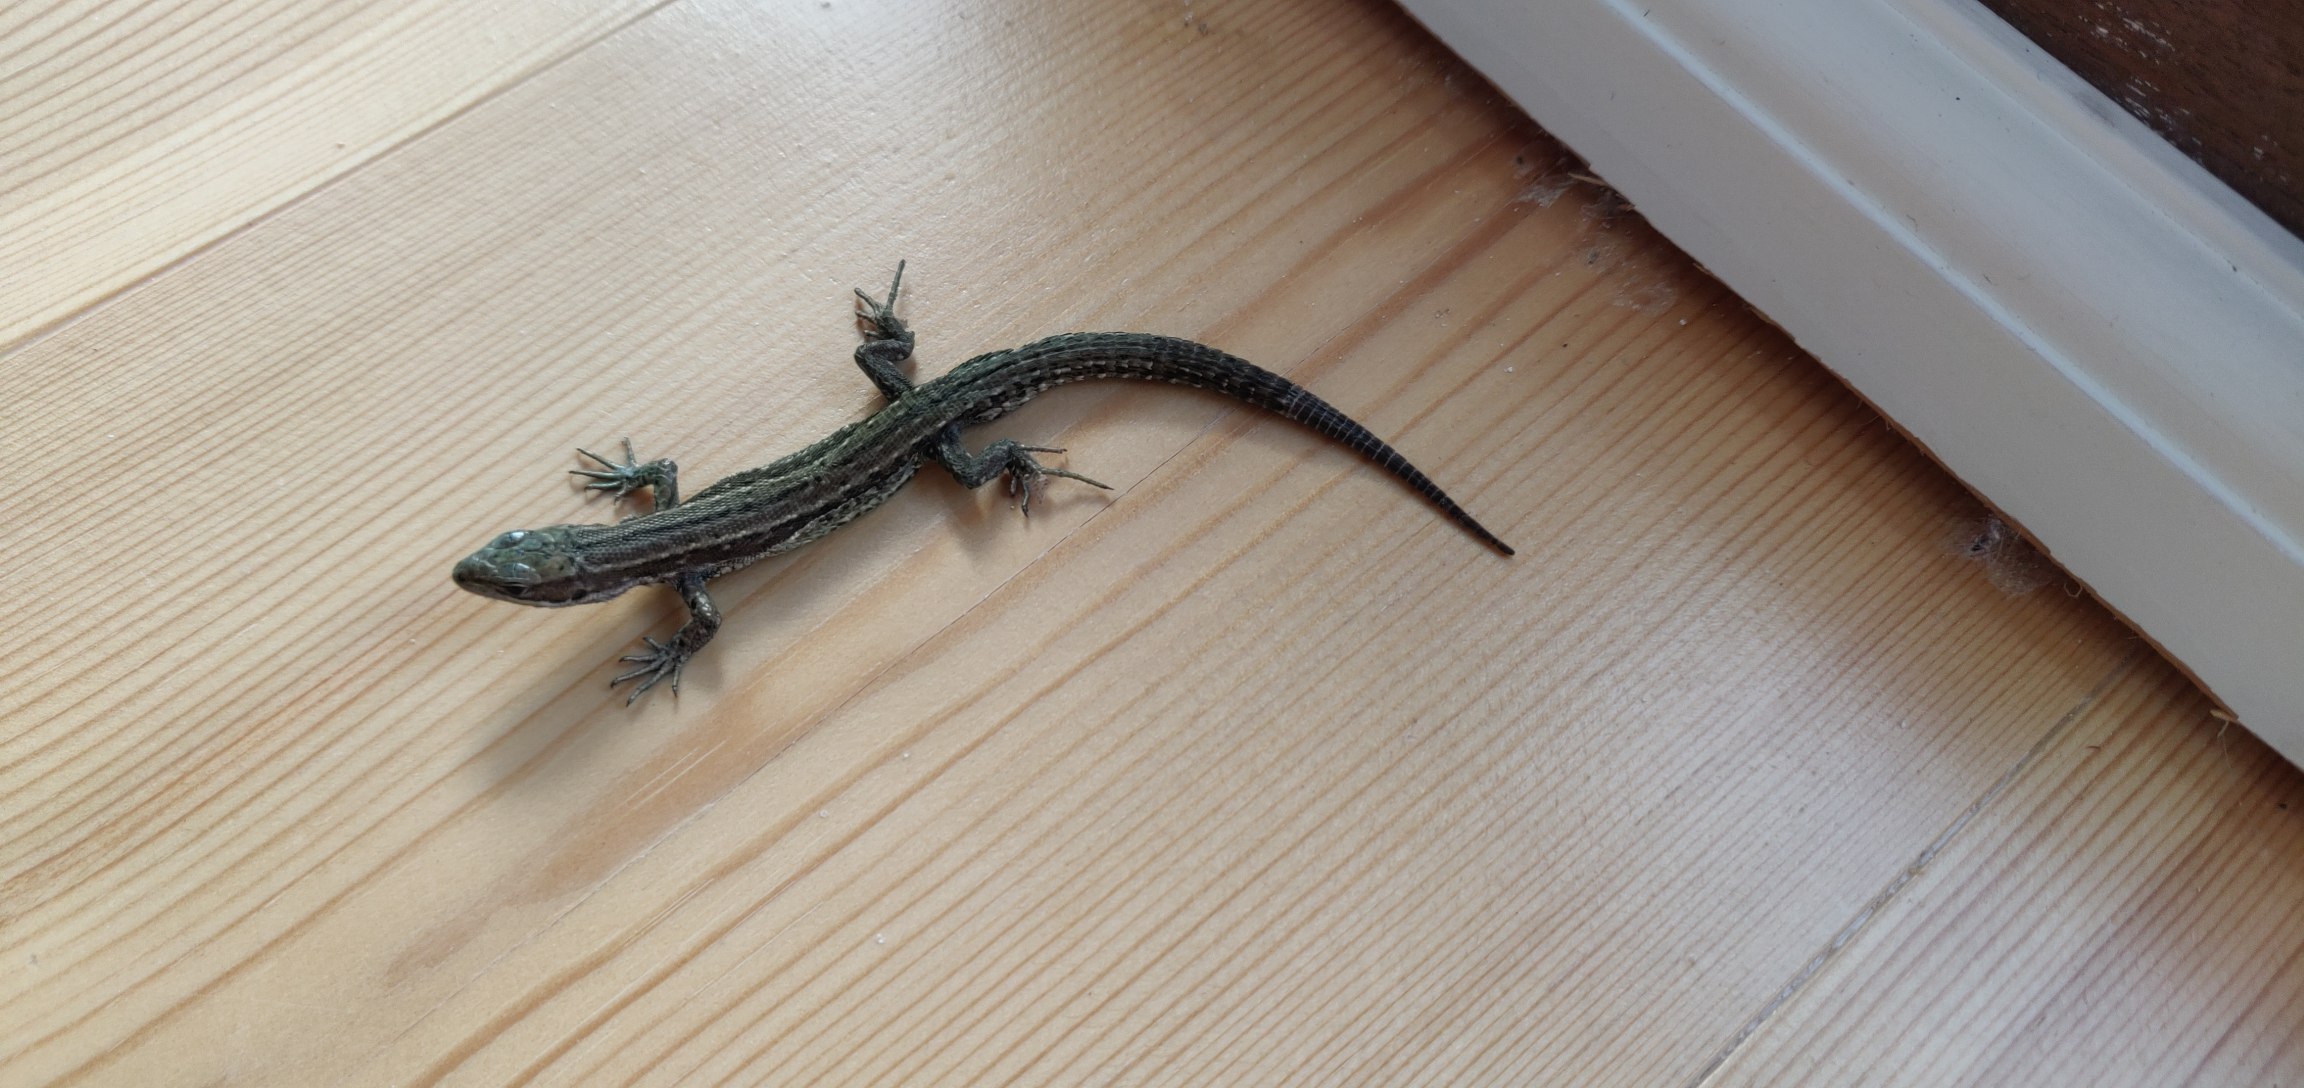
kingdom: Animalia
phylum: Chordata
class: Squamata
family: Lacertidae
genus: Zootoca
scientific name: Zootoca vivipara
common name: Skovfirben
